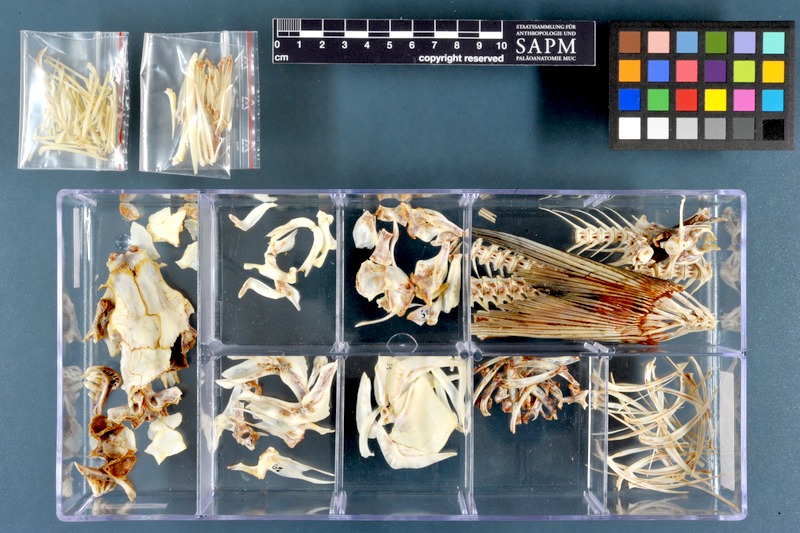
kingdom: Animalia
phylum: Chordata
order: Cypriniformes
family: Cyprinidae
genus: Arabibarbus
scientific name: Arabibarbus grypus
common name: Shabout
